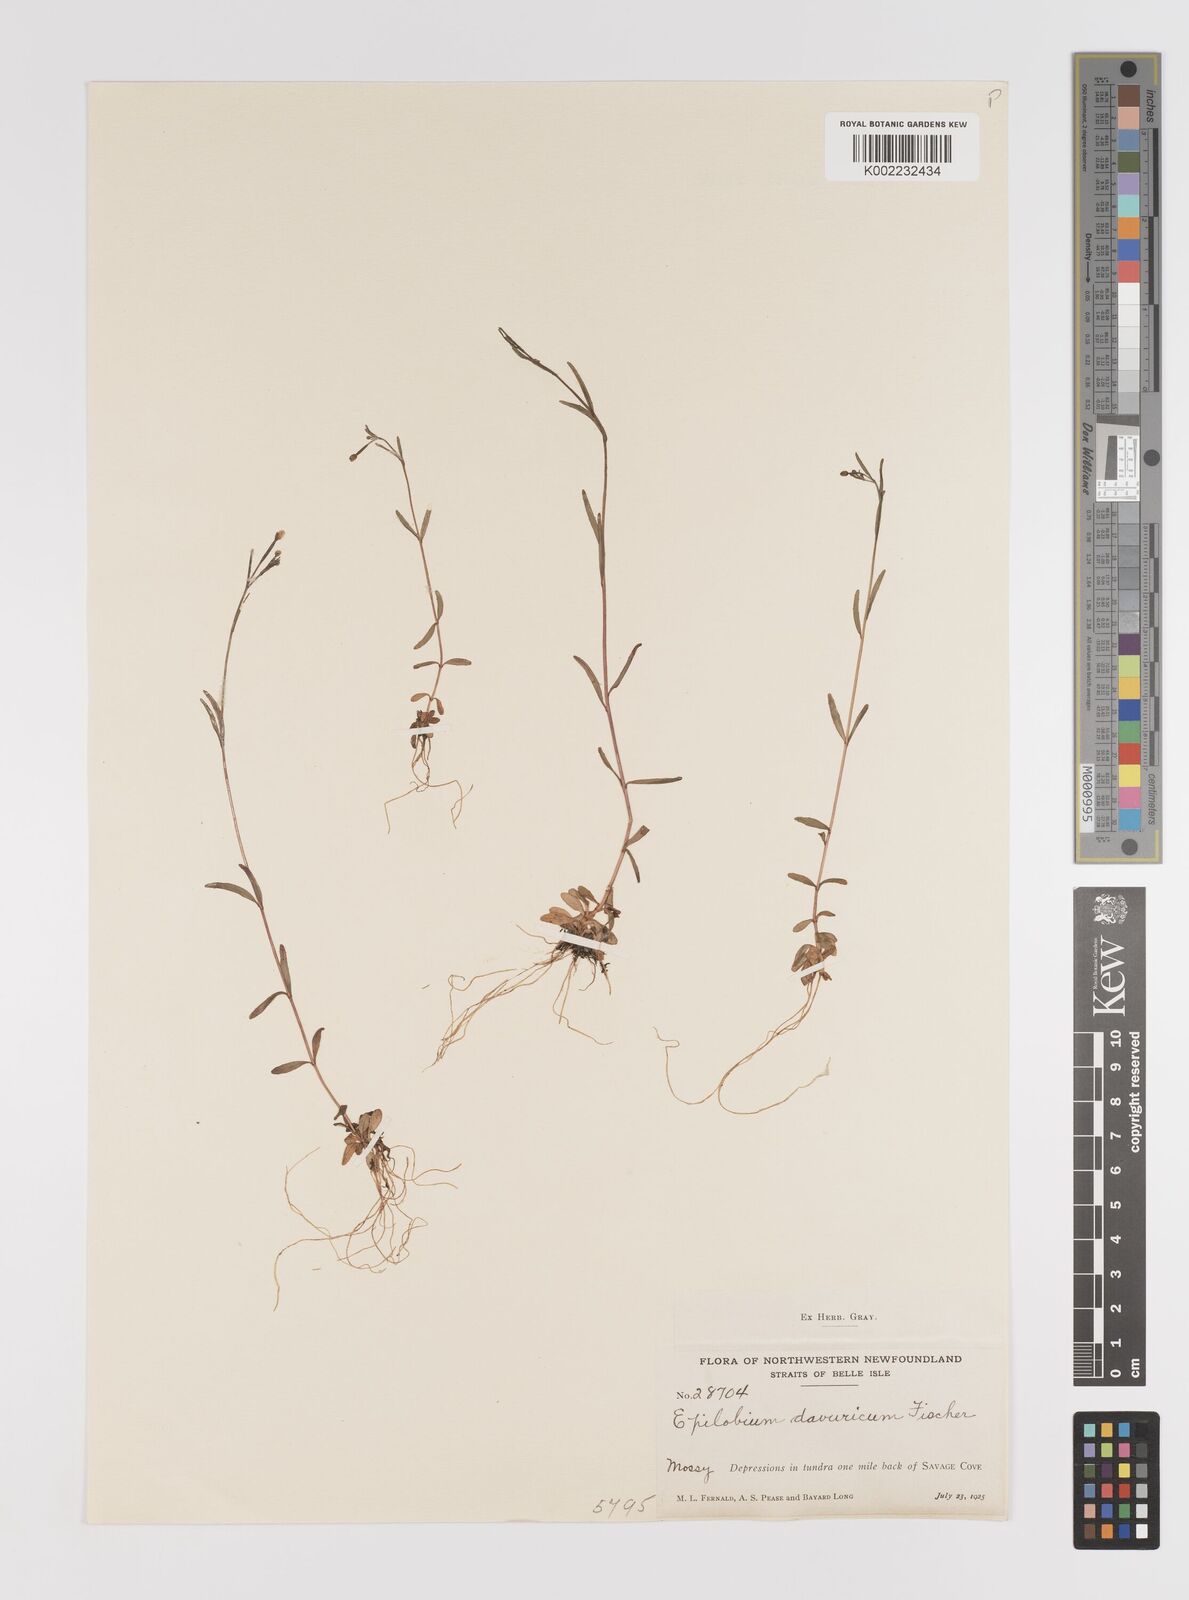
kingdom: Plantae
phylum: Tracheophyta
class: Magnoliopsida
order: Myrtales
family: Onagraceae
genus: Epilobium
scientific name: Epilobium davuricum
